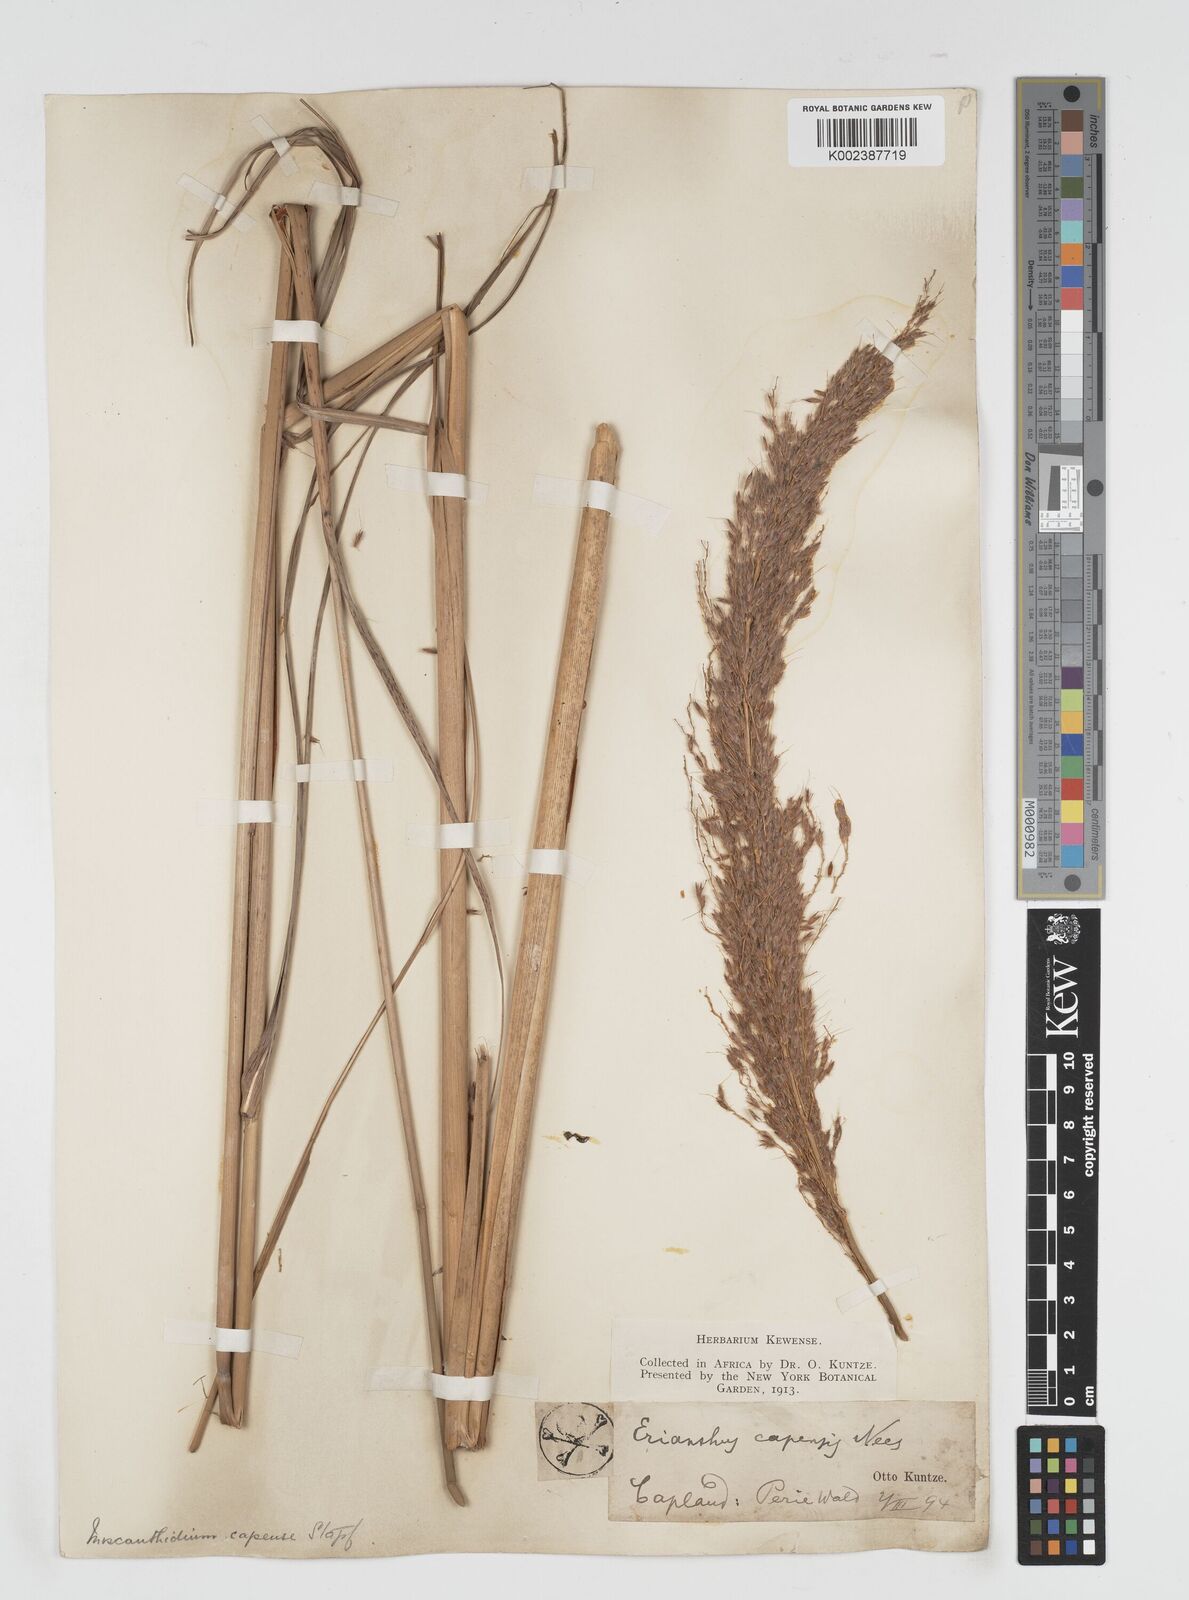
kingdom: Plantae
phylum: Tracheophyta
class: Liliopsida
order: Poales
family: Poaceae
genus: Miscanthus
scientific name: Miscanthus ecklonii
